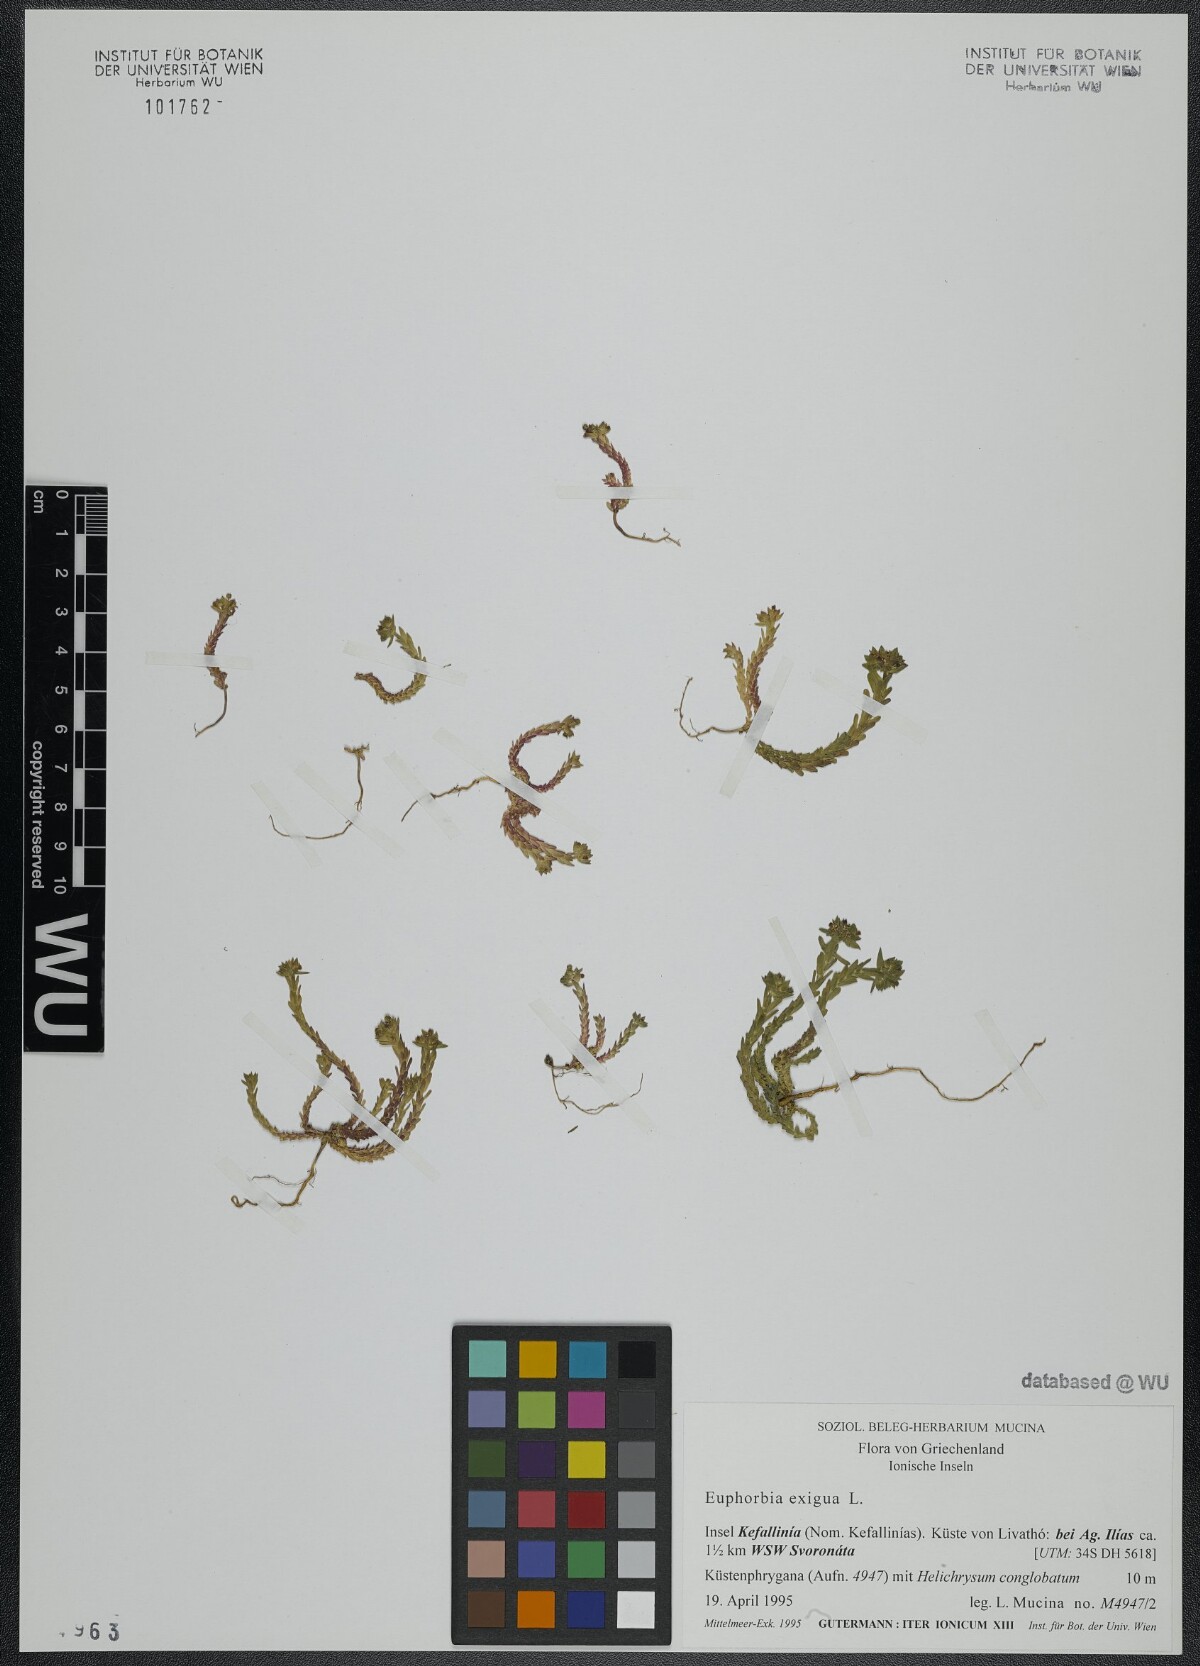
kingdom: Plantae
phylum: Tracheophyta
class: Magnoliopsida
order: Malpighiales
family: Euphorbiaceae
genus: Euphorbia
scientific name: Euphorbia exigua
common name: Dwarf spurge
